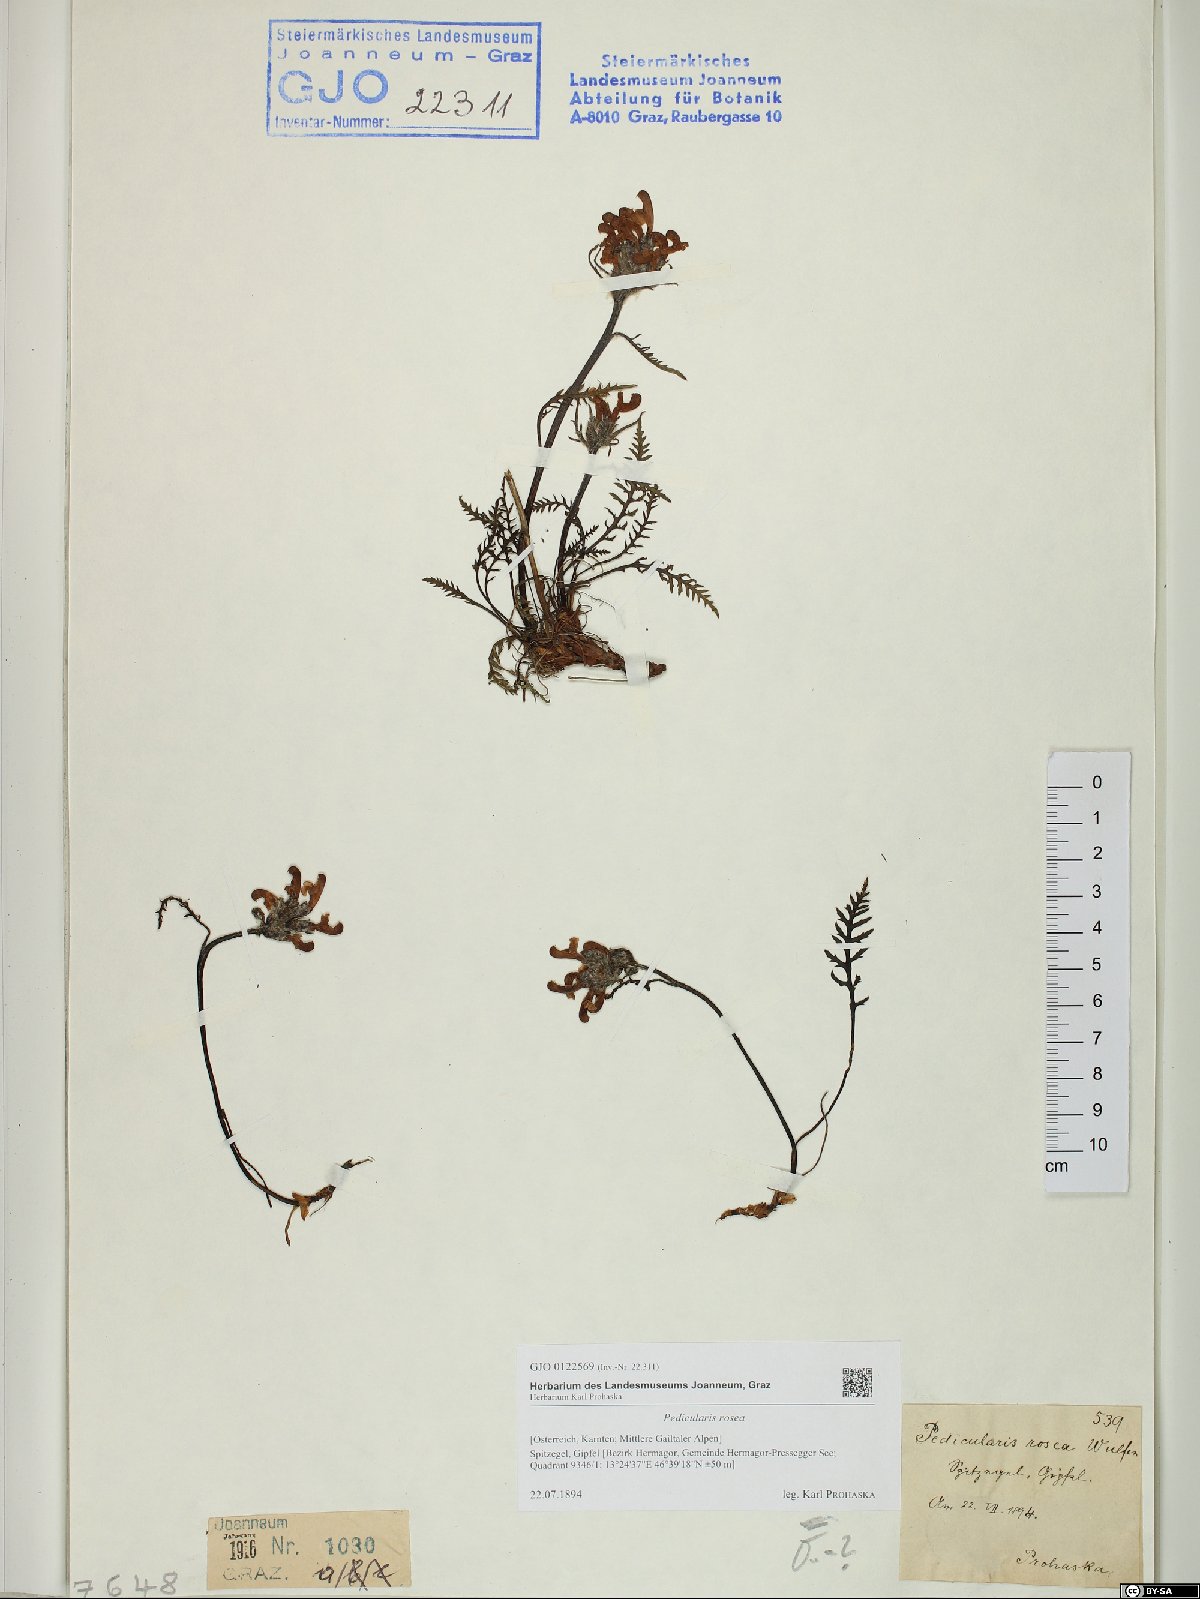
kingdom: Plantae
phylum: Tracheophyta
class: Magnoliopsida
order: Lamiales
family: Orobanchaceae
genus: Pedicularis
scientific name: Pedicularis rosea
